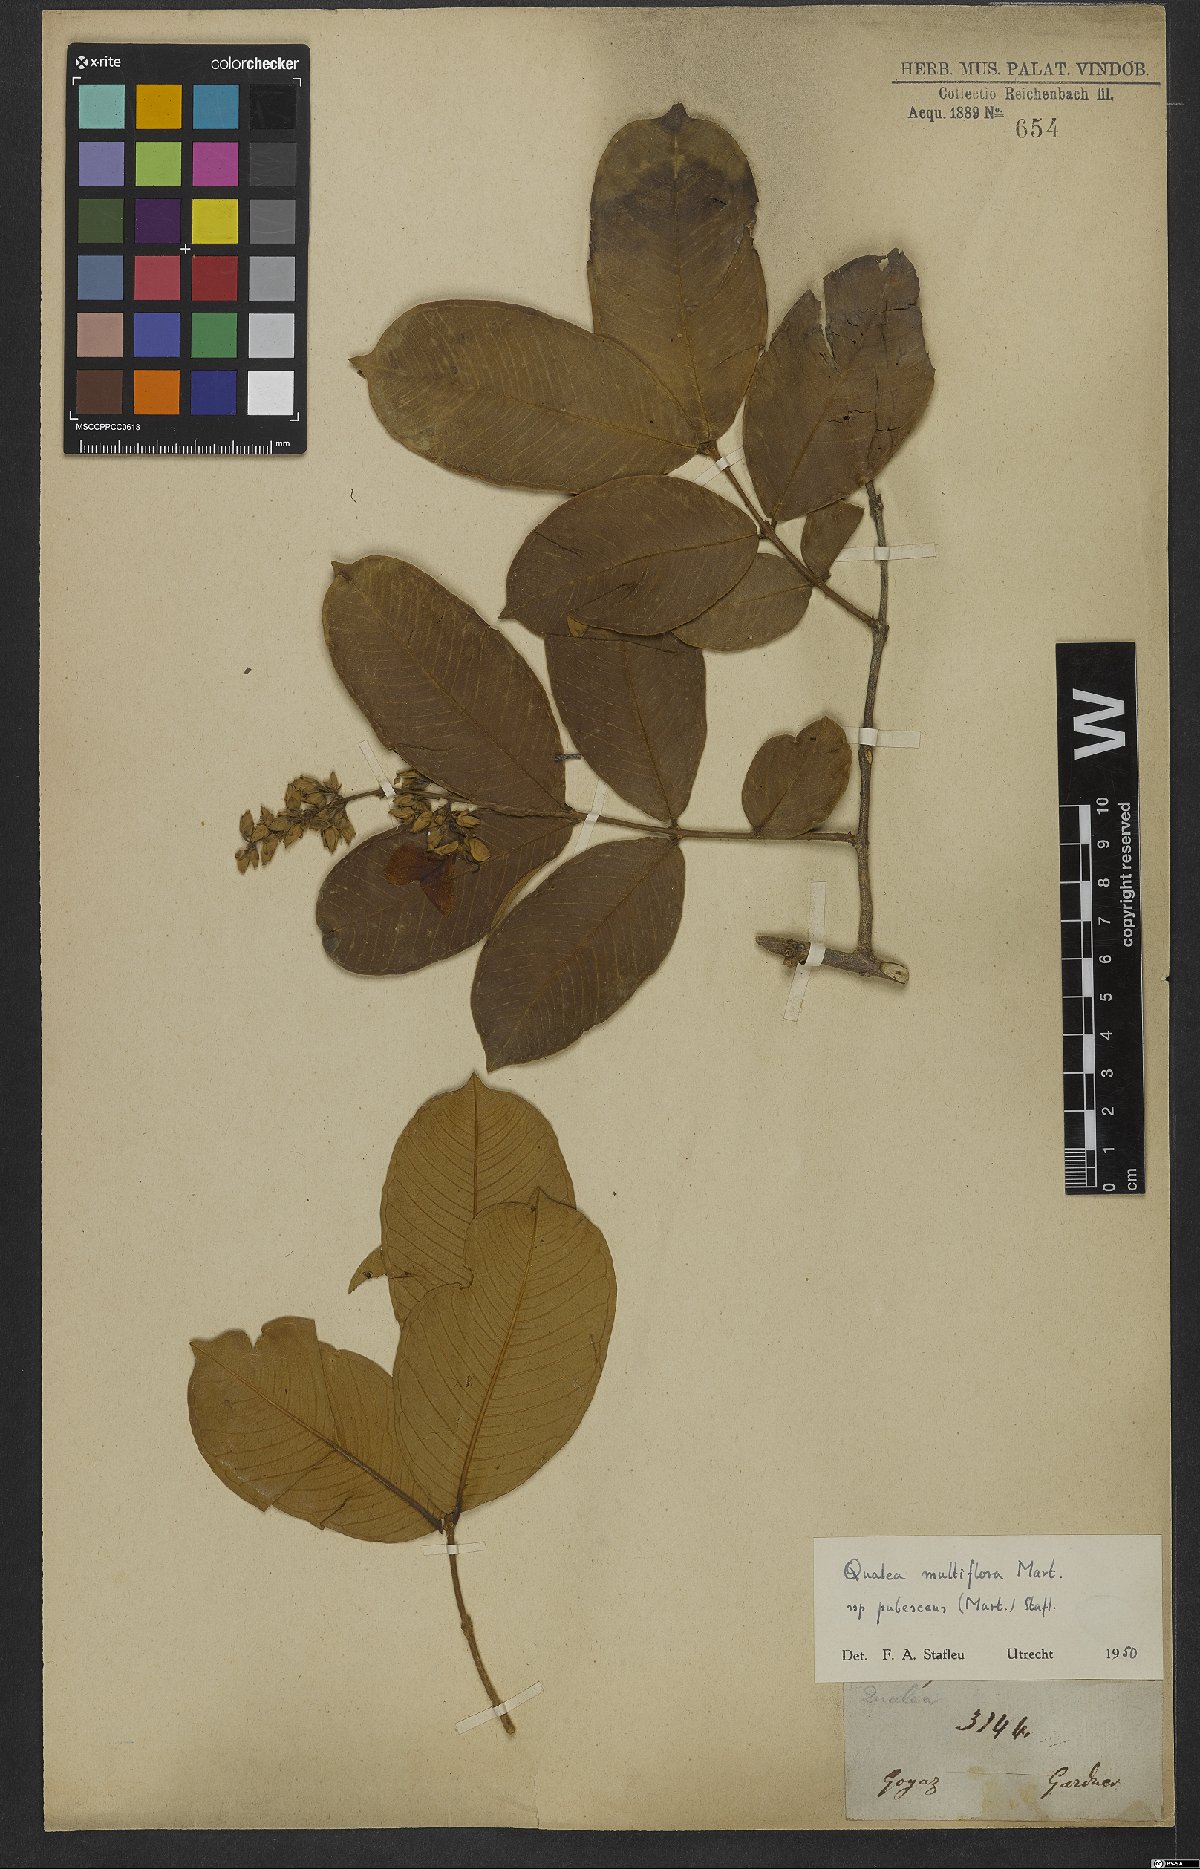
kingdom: Plantae
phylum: Tracheophyta
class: Magnoliopsida
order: Myrtales
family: Vochysiaceae
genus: Qualea
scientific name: Qualea multiflora
